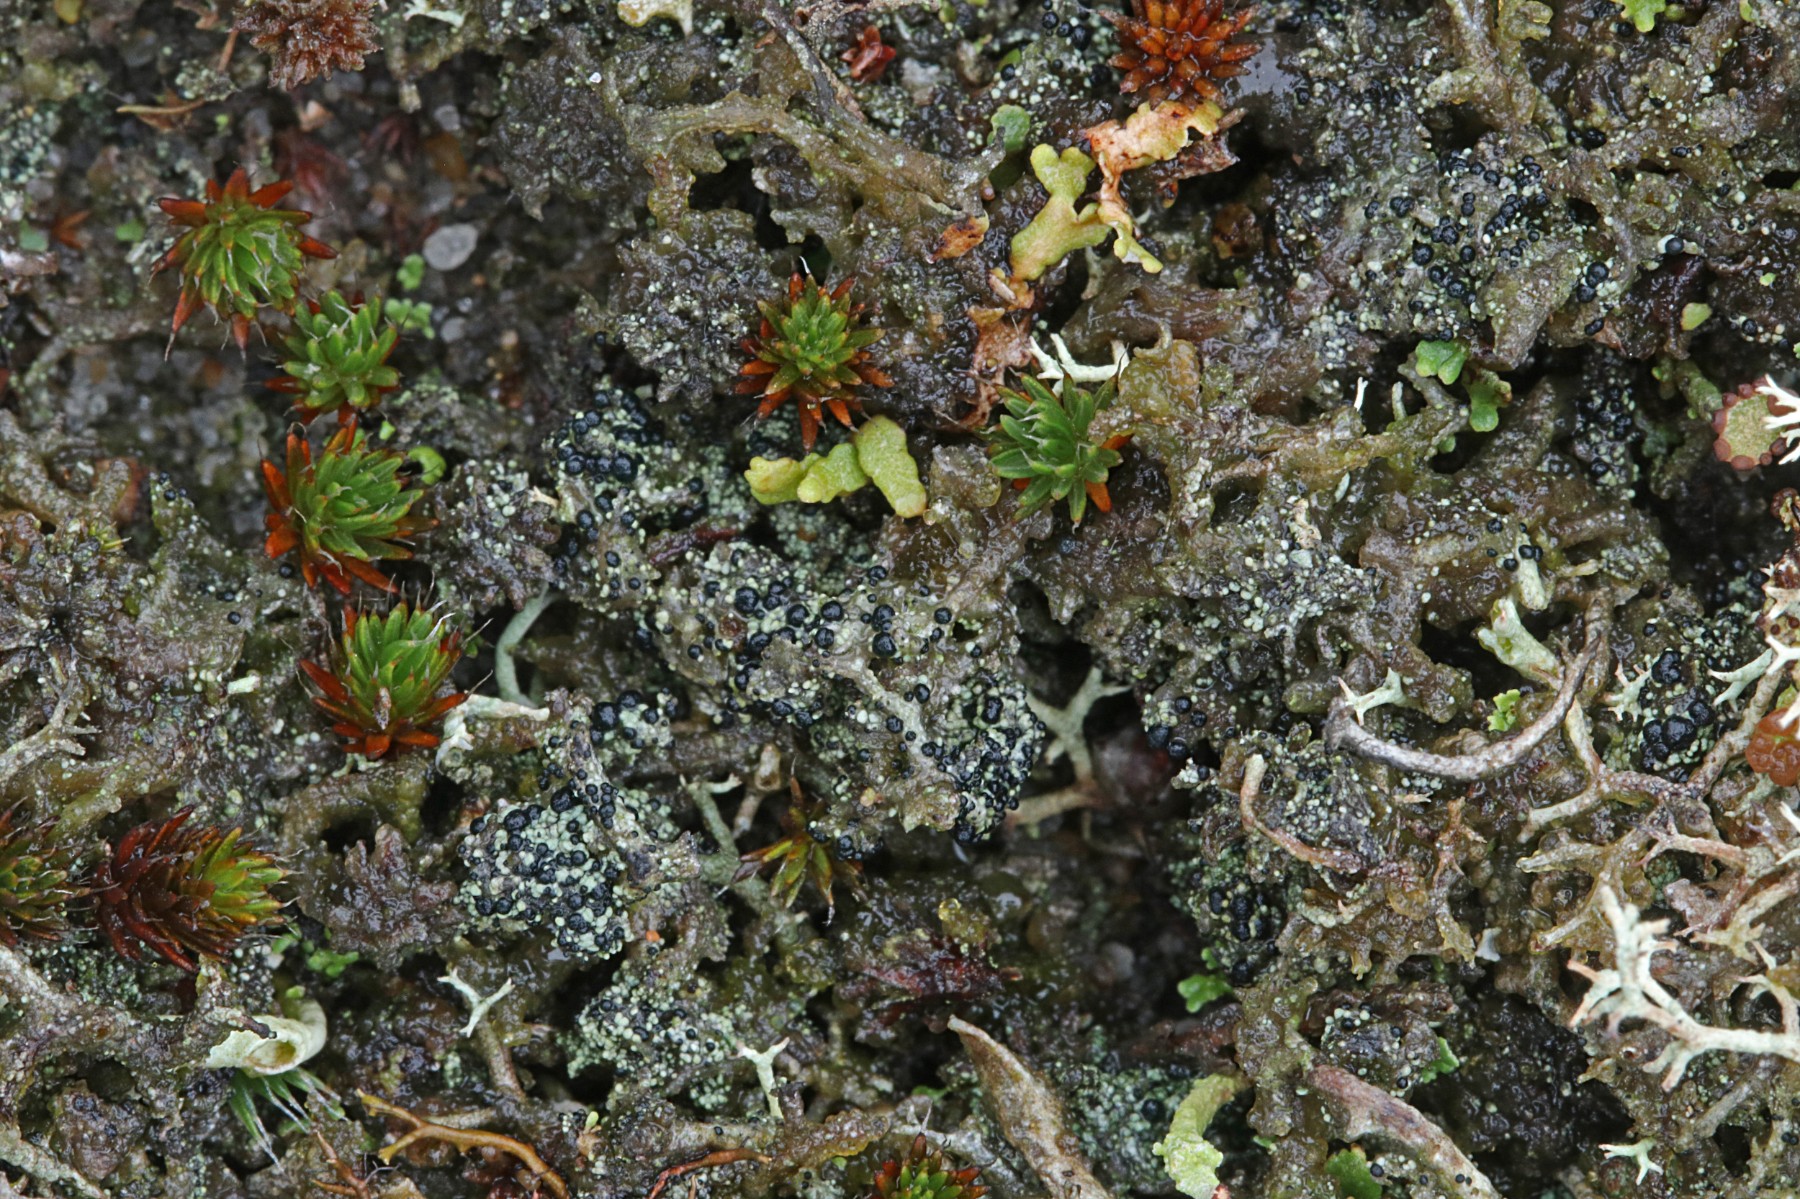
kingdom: Fungi
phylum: Ascomycota
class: Lecanoromycetes
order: Lecanorales
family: Byssolomataceae
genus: Micarea
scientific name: Micarea lignaria
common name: tørve-knaplav
